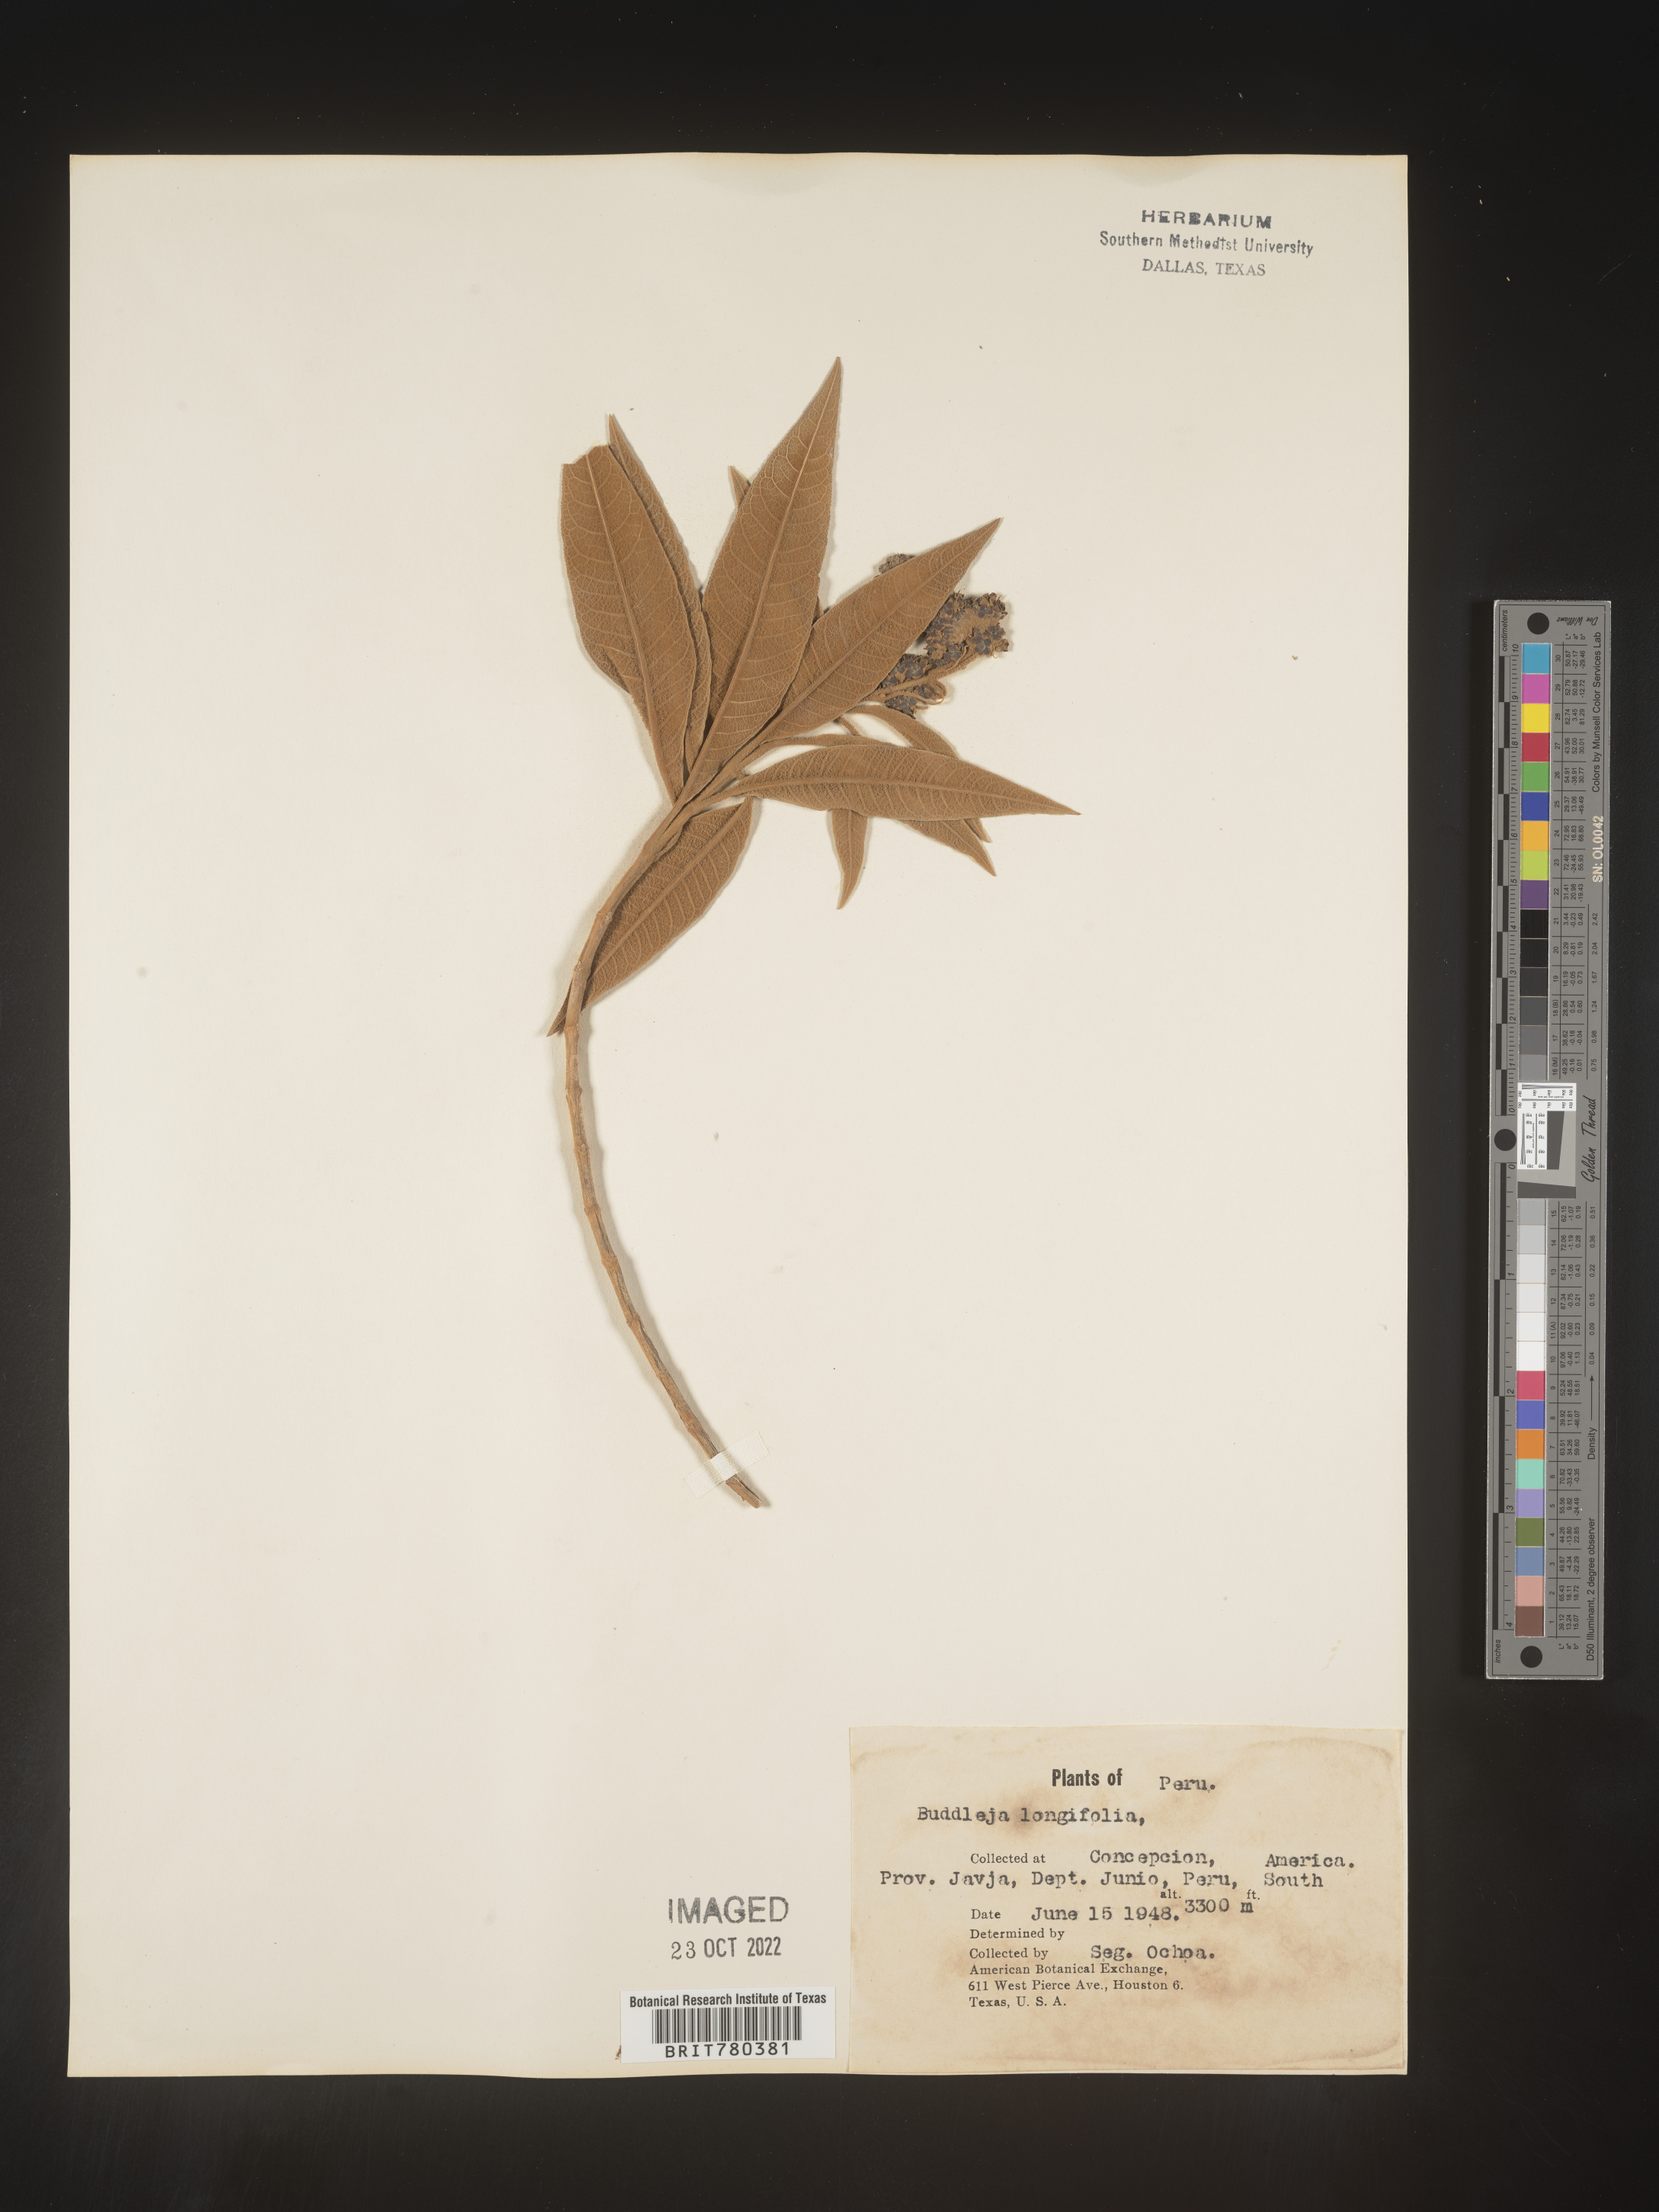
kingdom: Plantae
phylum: Tracheophyta
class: Magnoliopsida
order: Lamiales
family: Scrophulariaceae
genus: Buddleja
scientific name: Buddleja
